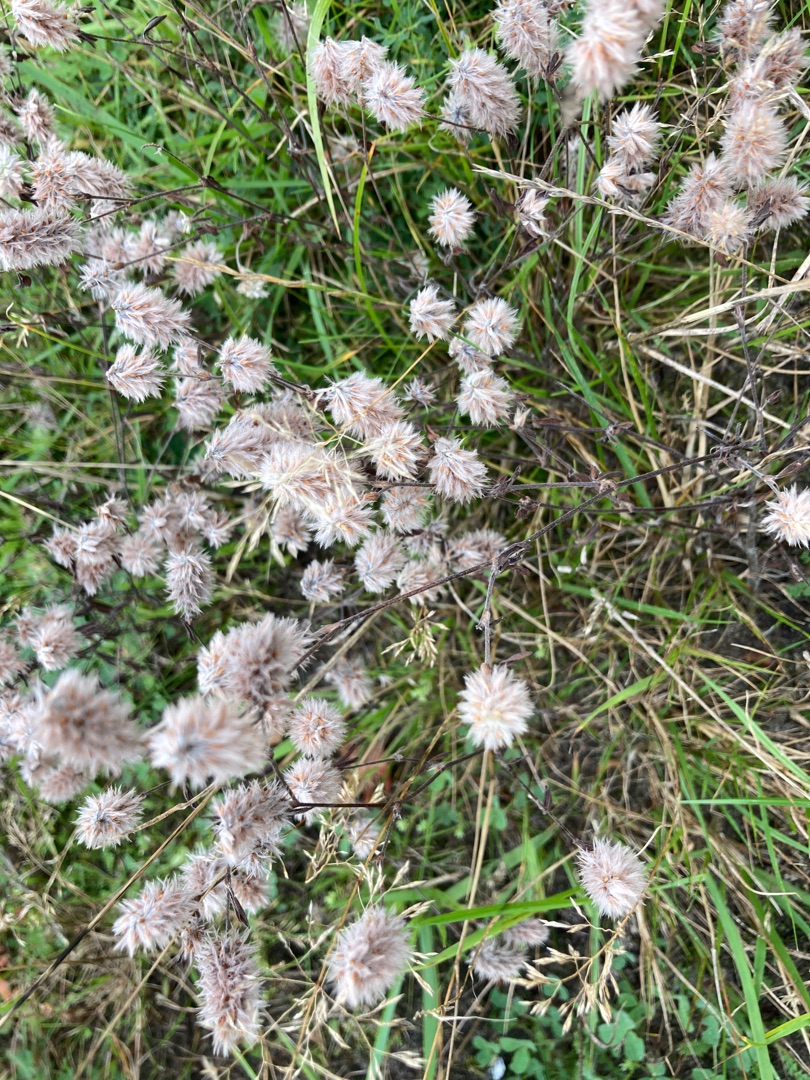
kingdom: Plantae
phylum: Tracheophyta
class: Magnoliopsida
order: Fabales
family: Fabaceae
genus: Trifolium
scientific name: Trifolium arvense
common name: Hare-kløver
